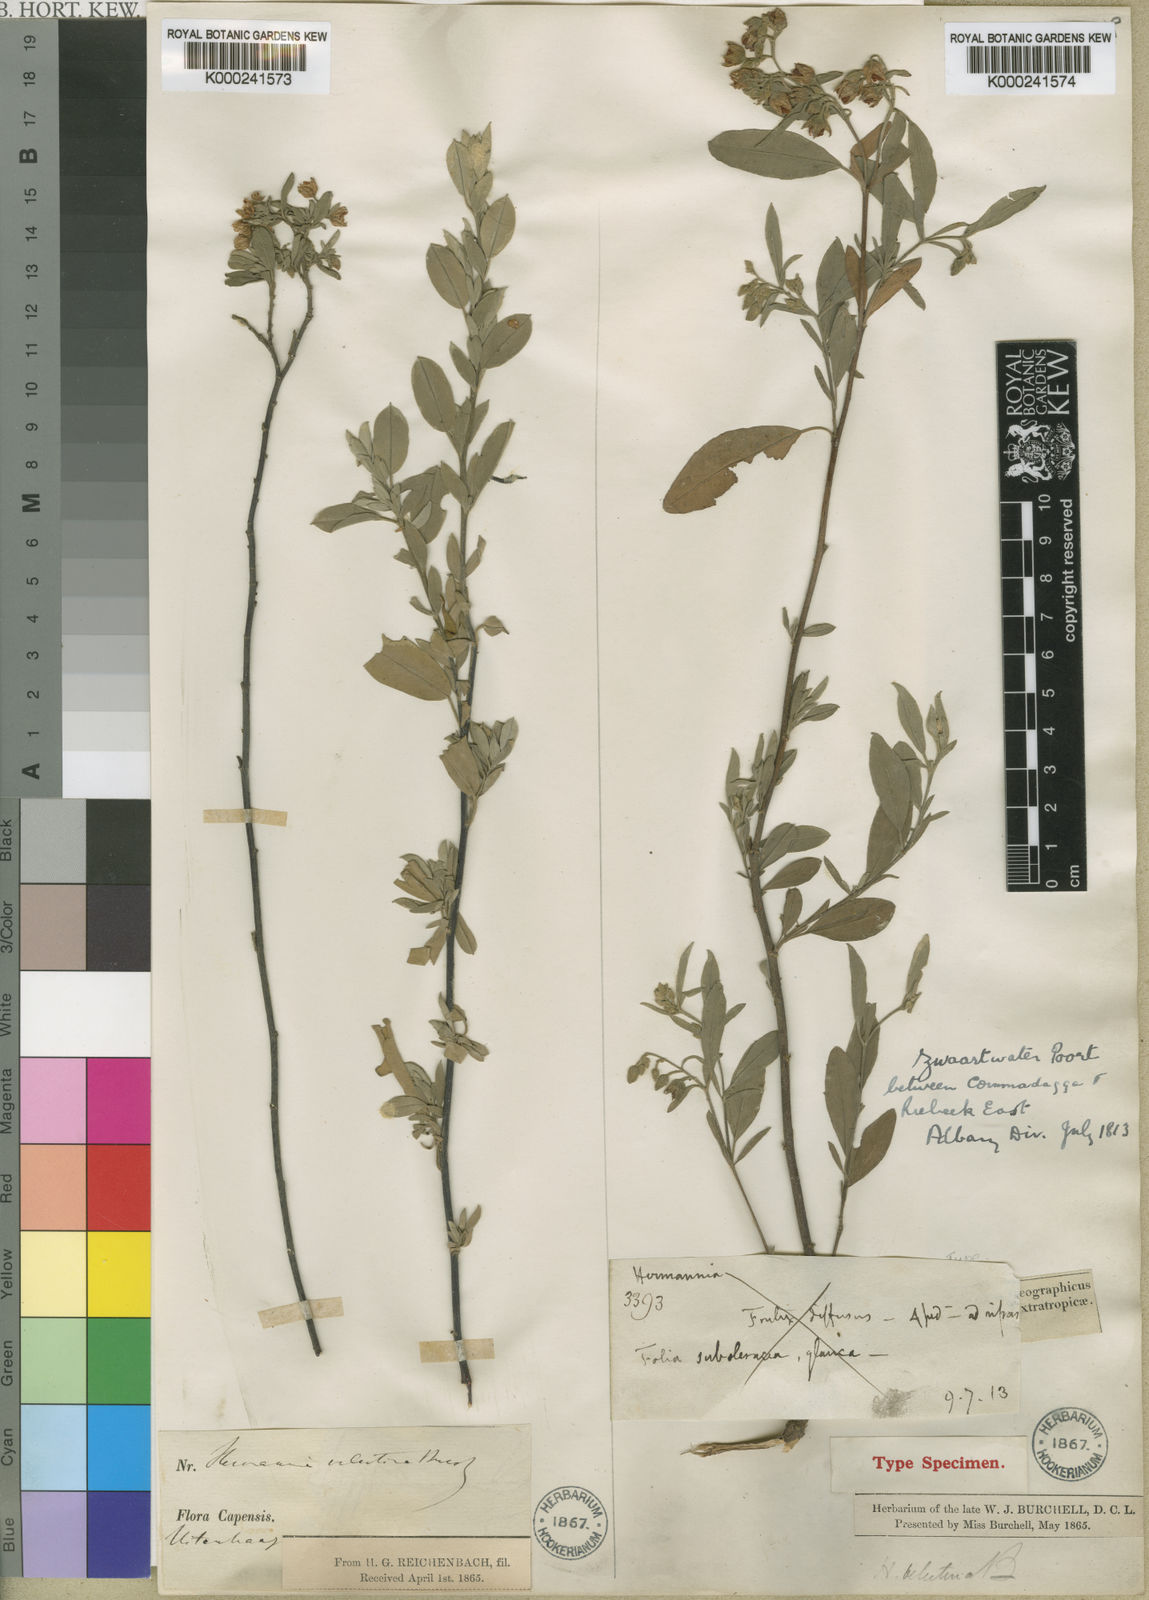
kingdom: Plantae
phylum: Tracheophyta
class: Magnoliopsida
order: Malvales
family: Malvaceae
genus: Hermannia
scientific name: Hermannia velutina
